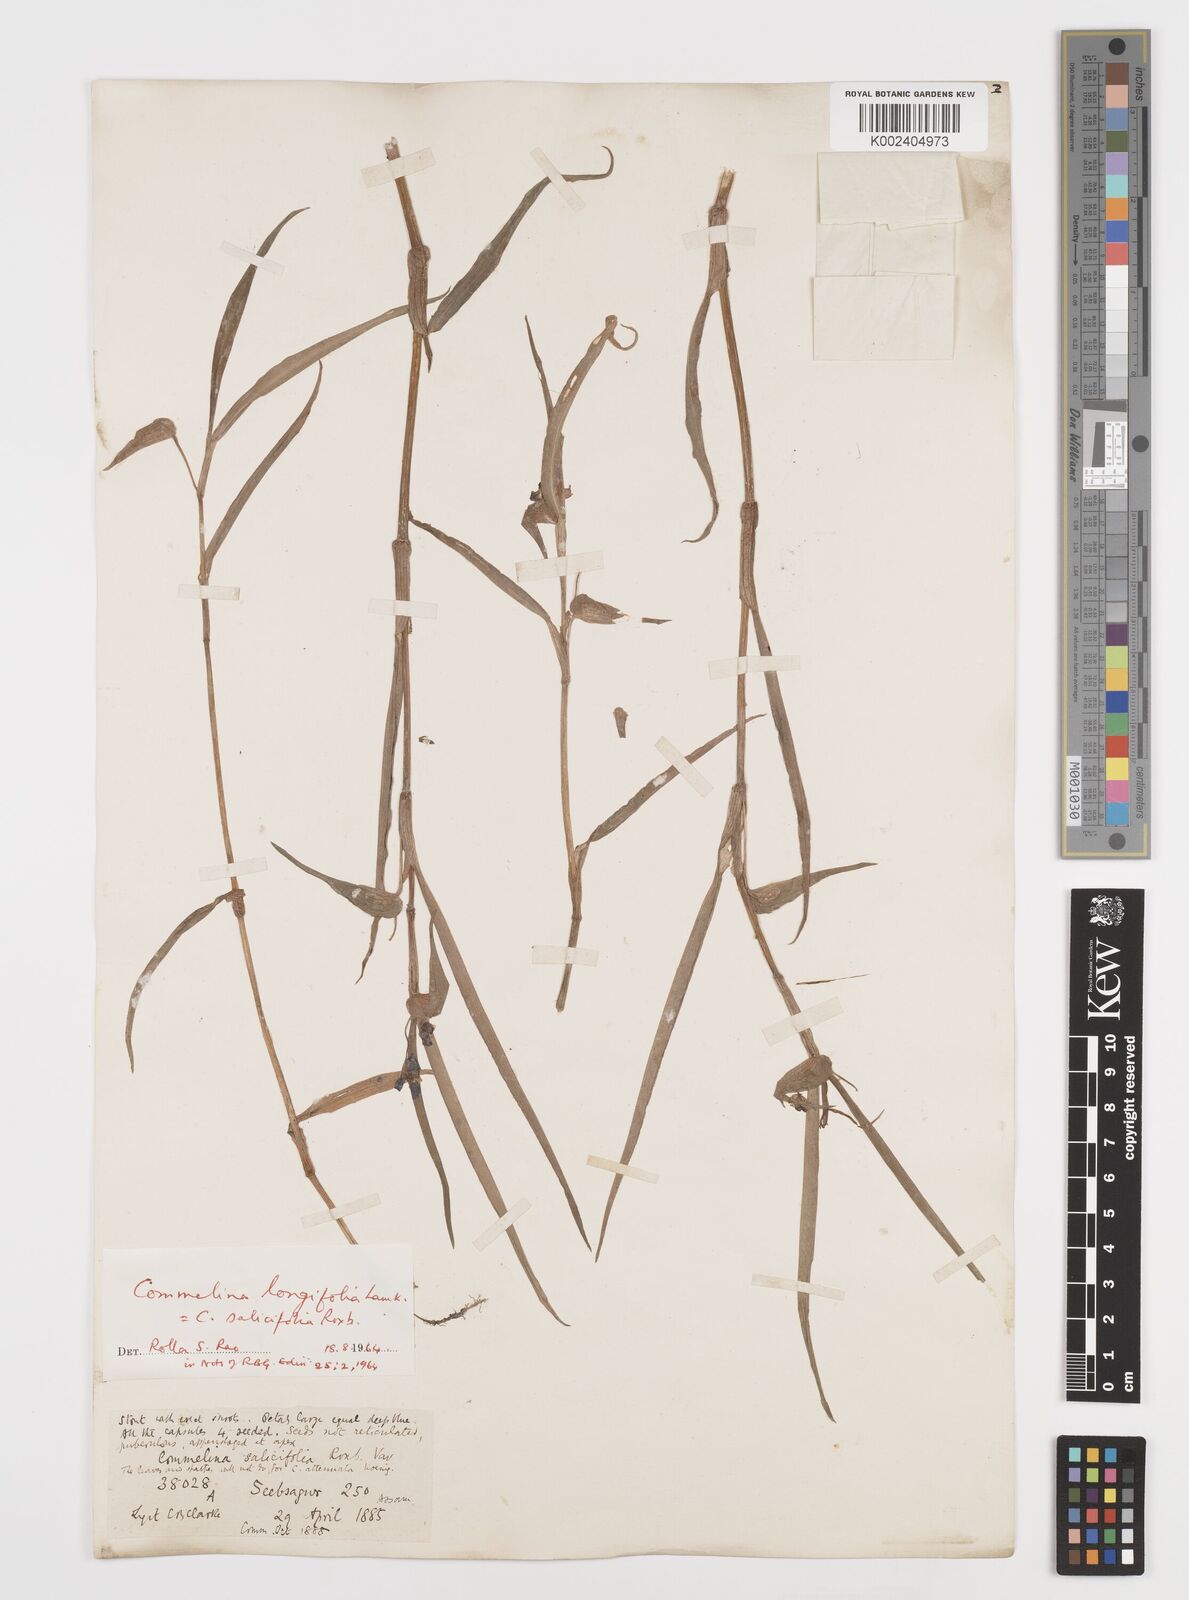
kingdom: Plantae
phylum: Tracheophyta
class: Liliopsida
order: Commelinales
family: Commelinaceae
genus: Commelina
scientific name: Commelina undulata
